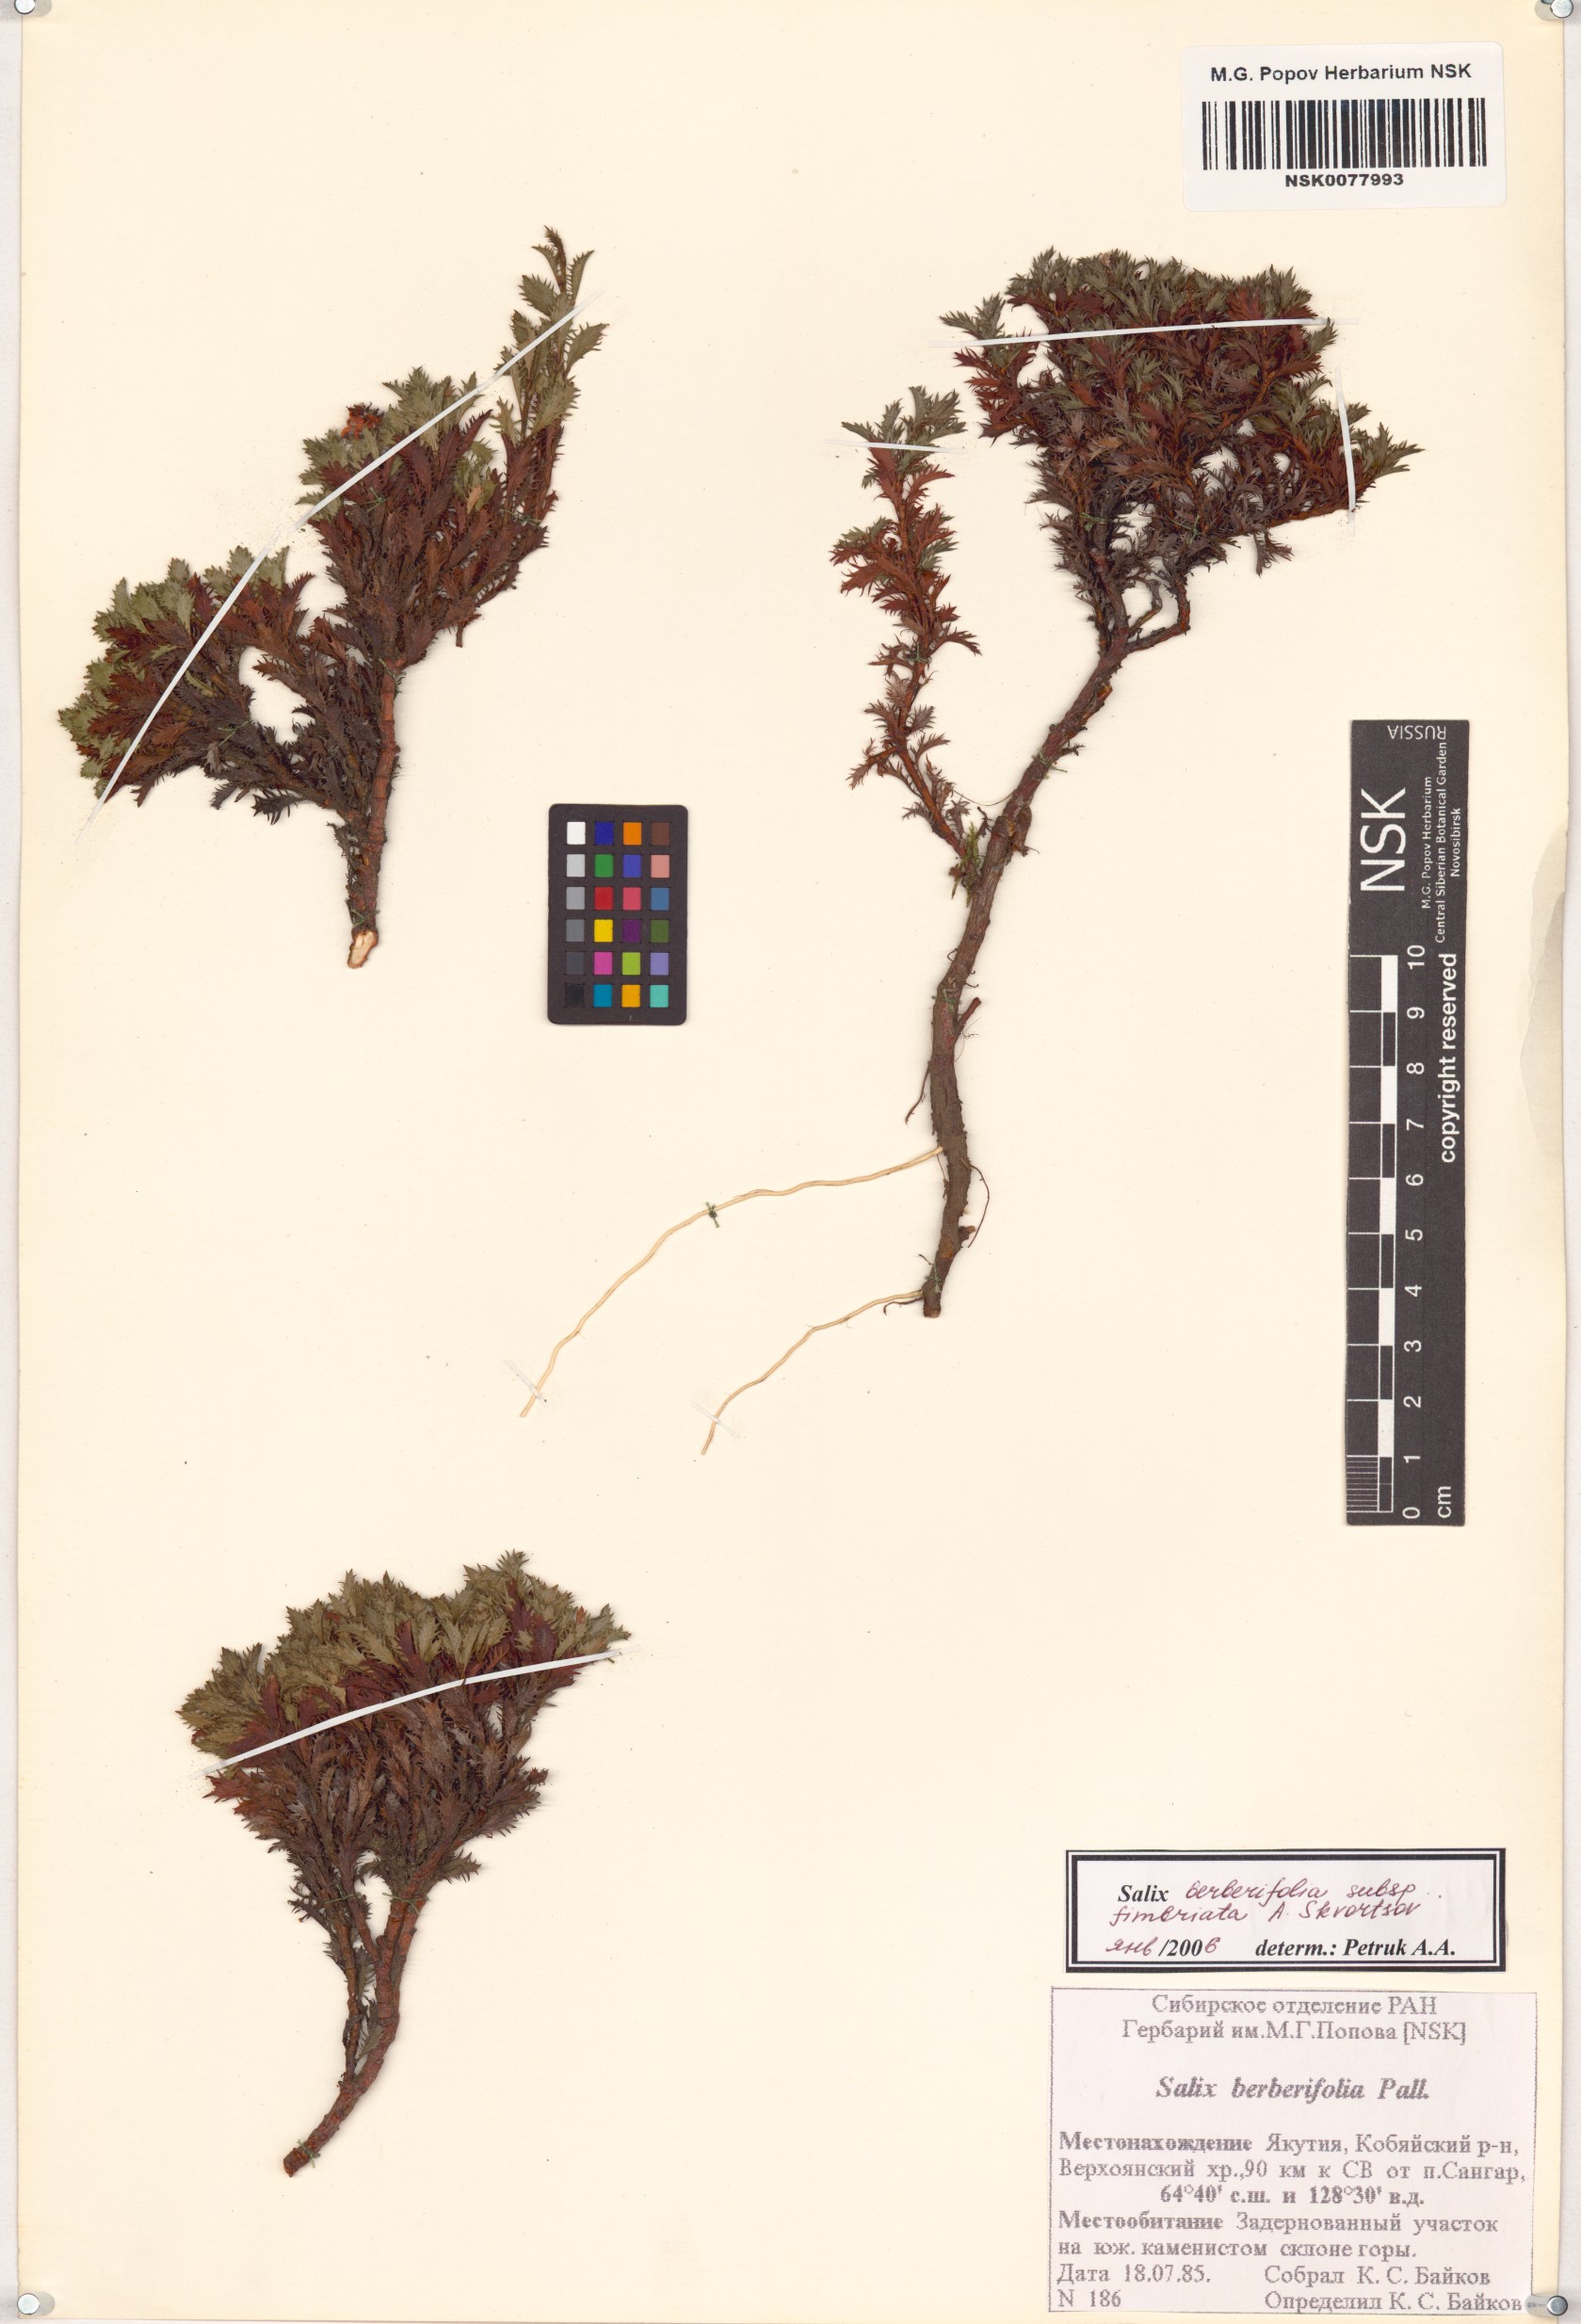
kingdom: Plantae
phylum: Tracheophyta
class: Magnoliopsida
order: Malpighiales
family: Salicaceae
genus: Salix
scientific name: Salix berberifolia
